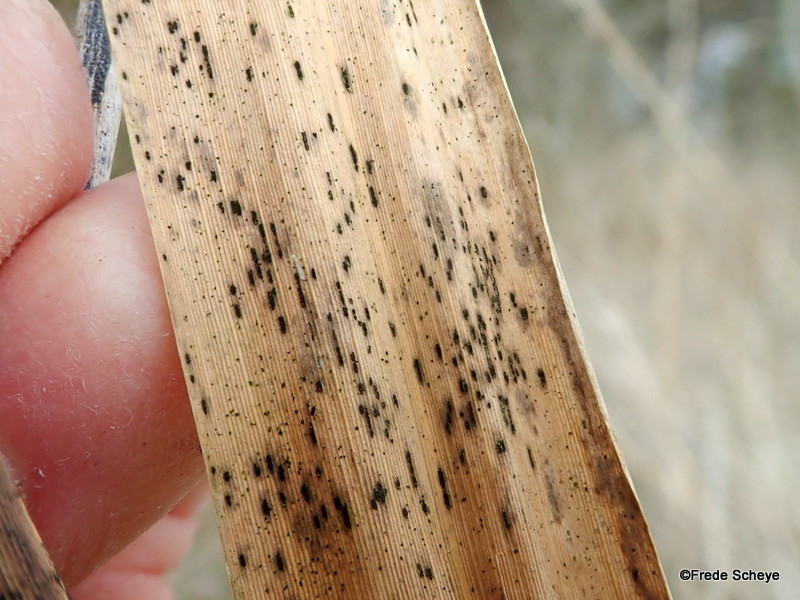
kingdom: Fungi
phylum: Basidiomycota
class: Pucciniomycetes
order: Pucciniales
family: Pucciniaceae
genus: Puccinia
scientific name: Puccinia magnusiana
